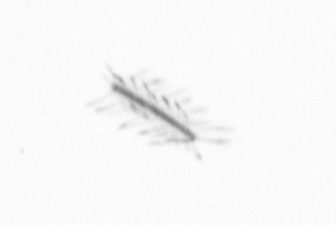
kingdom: Chromista
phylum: Ochrophyta
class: Bacillariophyceae
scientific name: Bacillariophyceae
